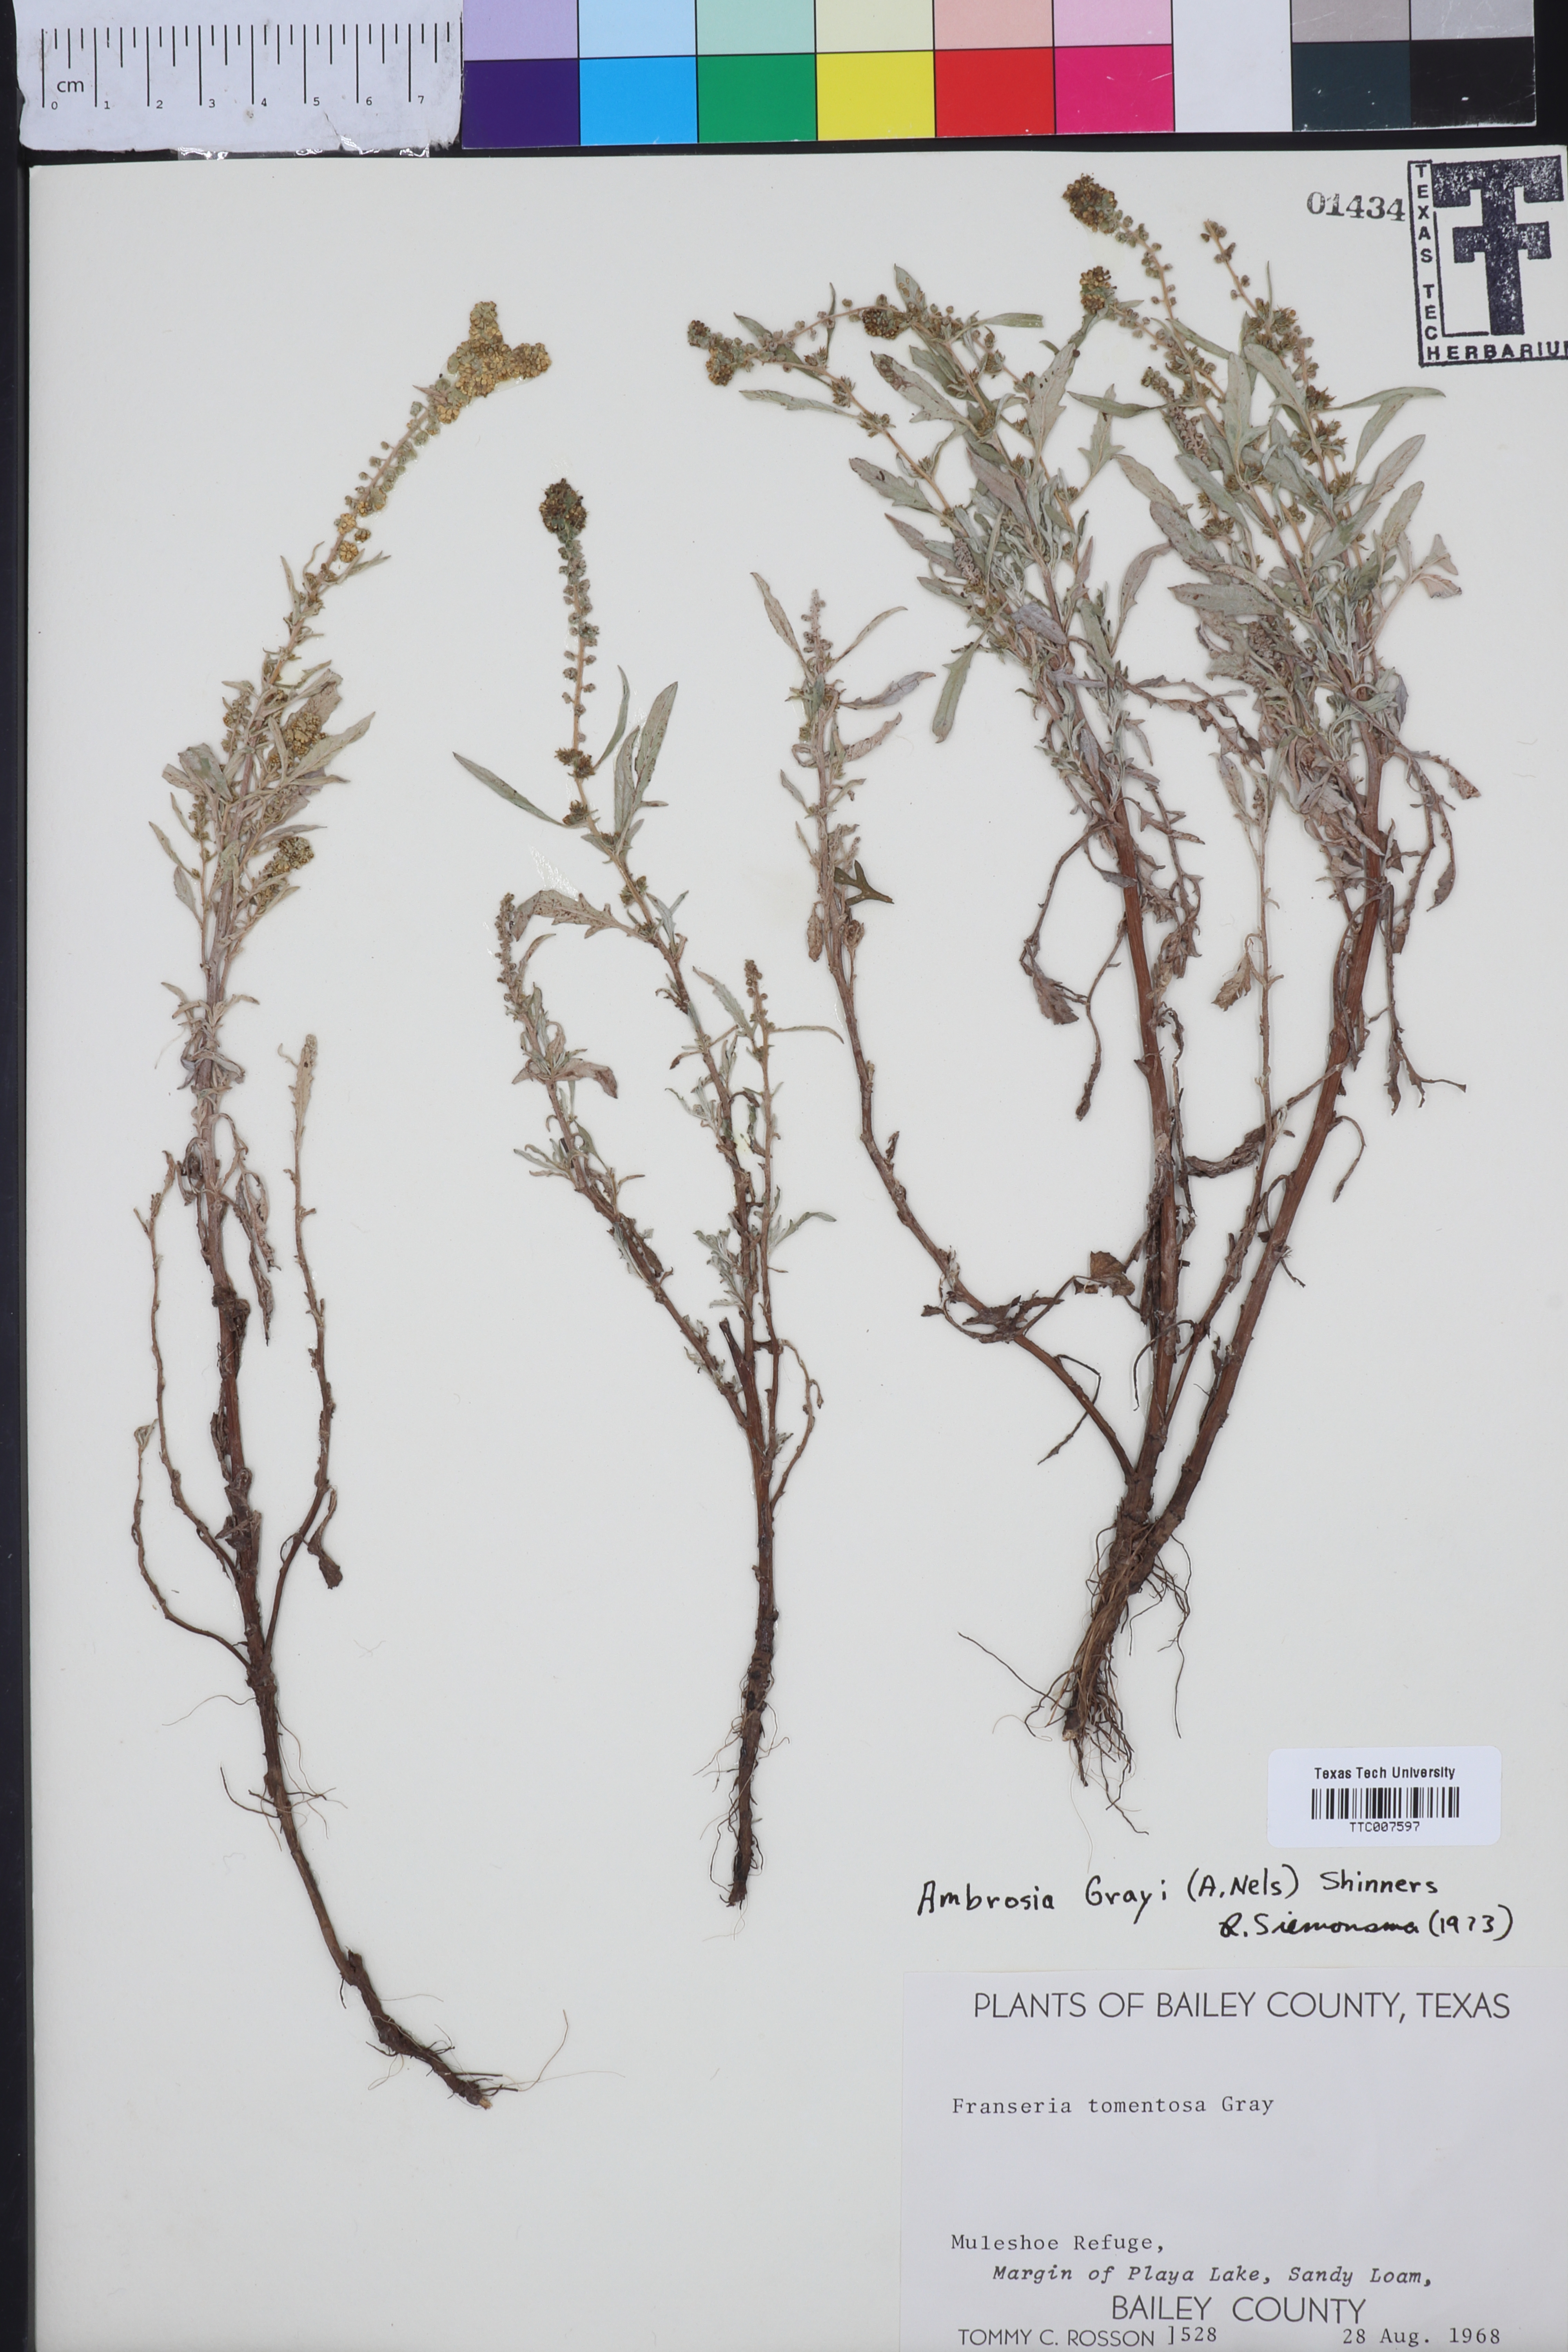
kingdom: Plantae
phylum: Tracheophyta
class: Magnoliopsida
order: Asterales
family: Asteraceae
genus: Ambrosia
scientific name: Ambrosia grayi
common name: Bur ragweed
